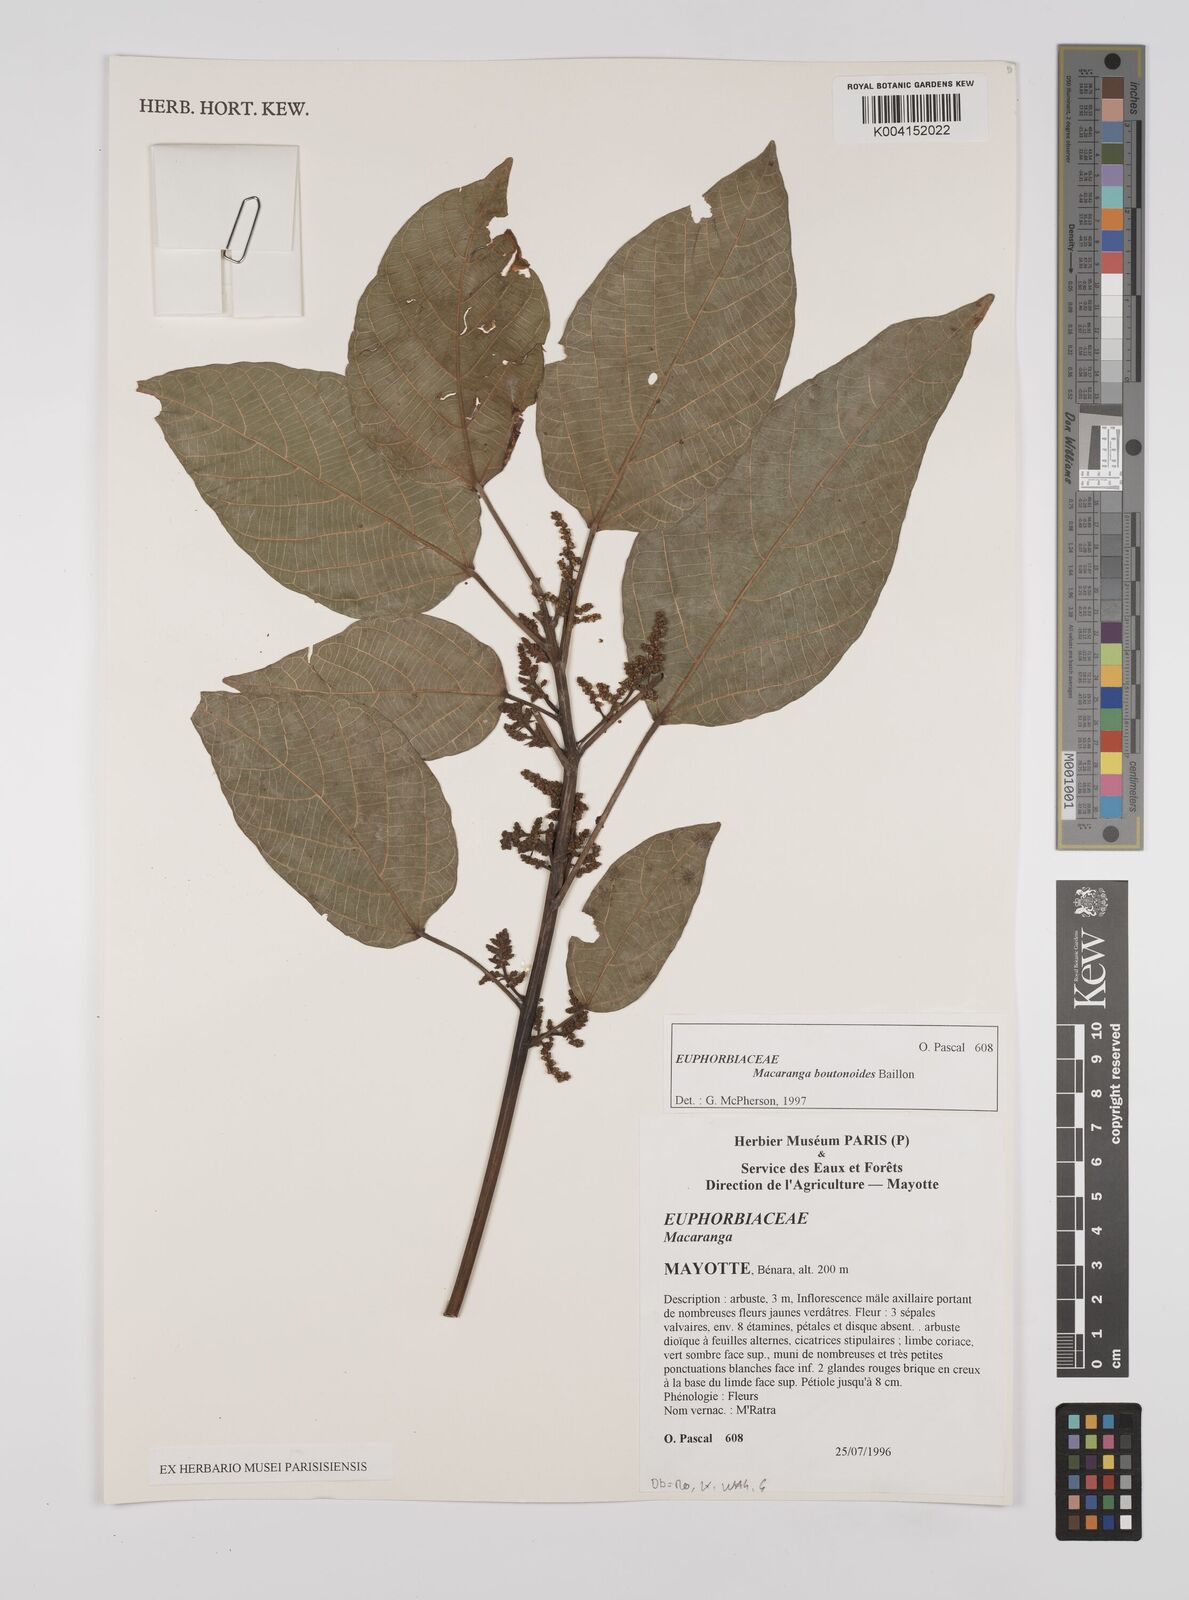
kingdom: Plantae
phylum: Tracheophyta
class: Magnoliopsida
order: Malpighiales
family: Euphorbiaceae
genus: Macaranga
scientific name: Macaranga boutonioides
